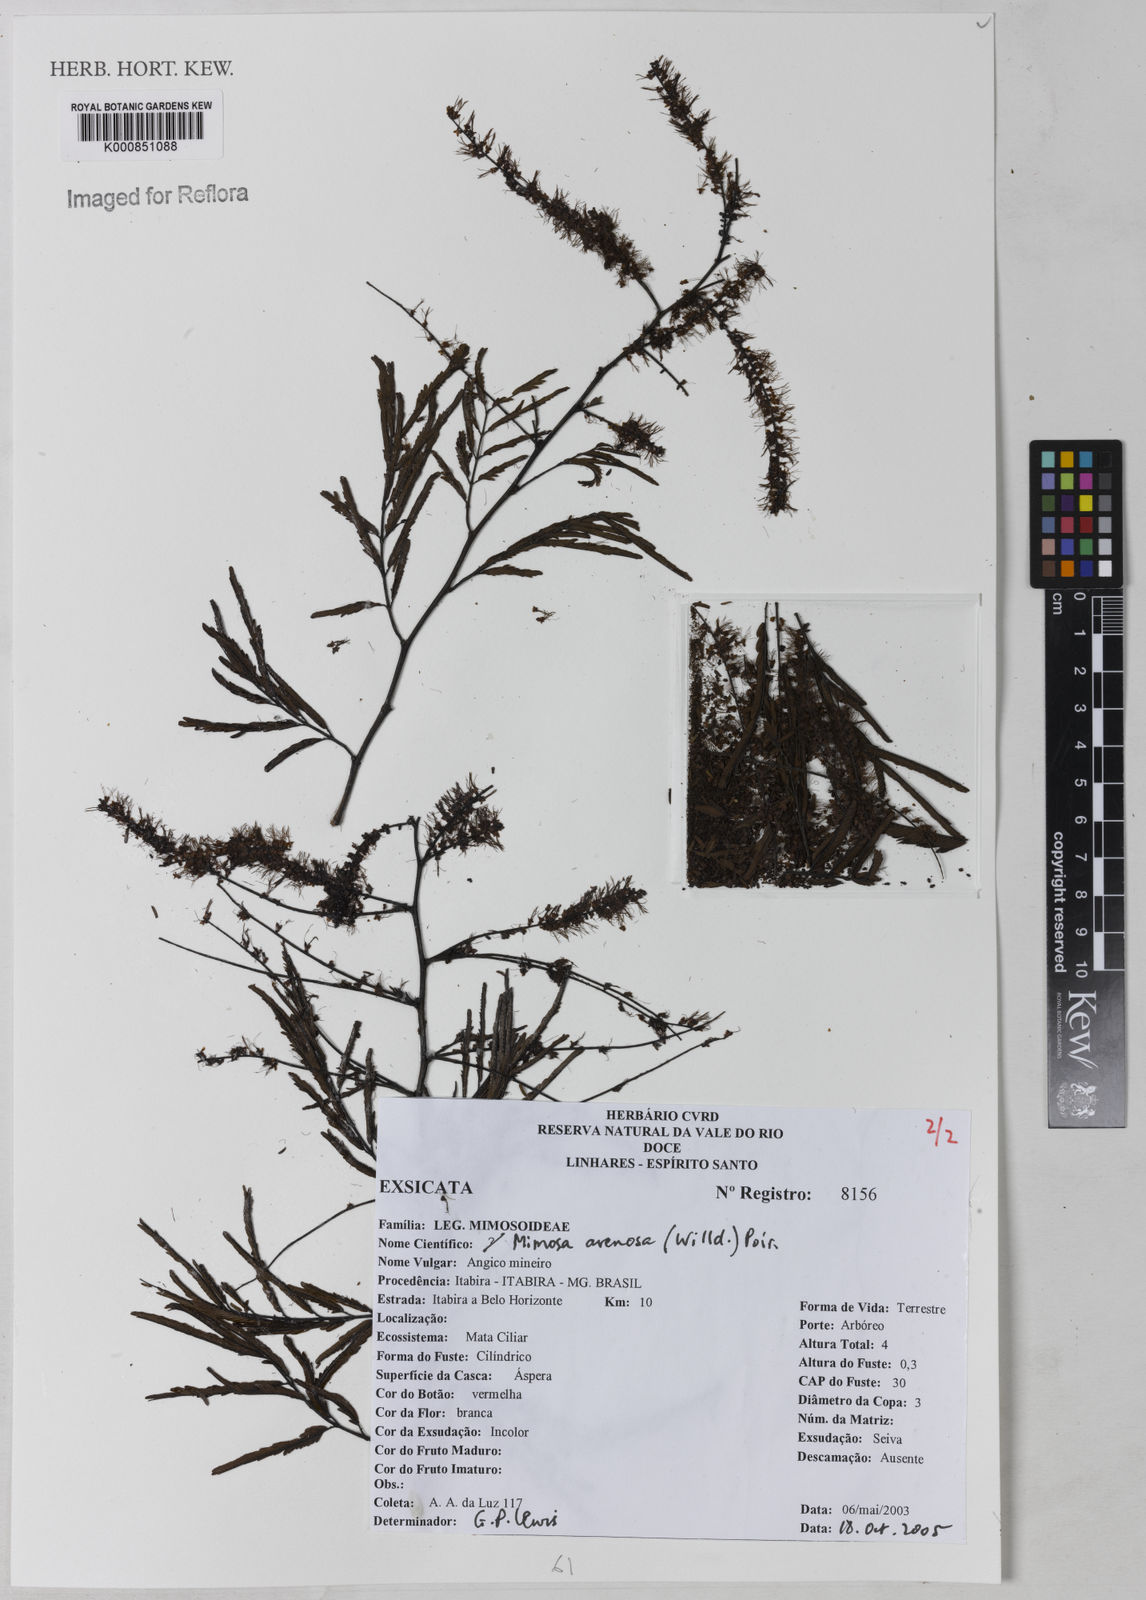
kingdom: Plantae
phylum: Tracheophyta
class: Magnoliopsida
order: Fabales
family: Fabaceae
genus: Mimosa
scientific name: Mimosa arenosa
